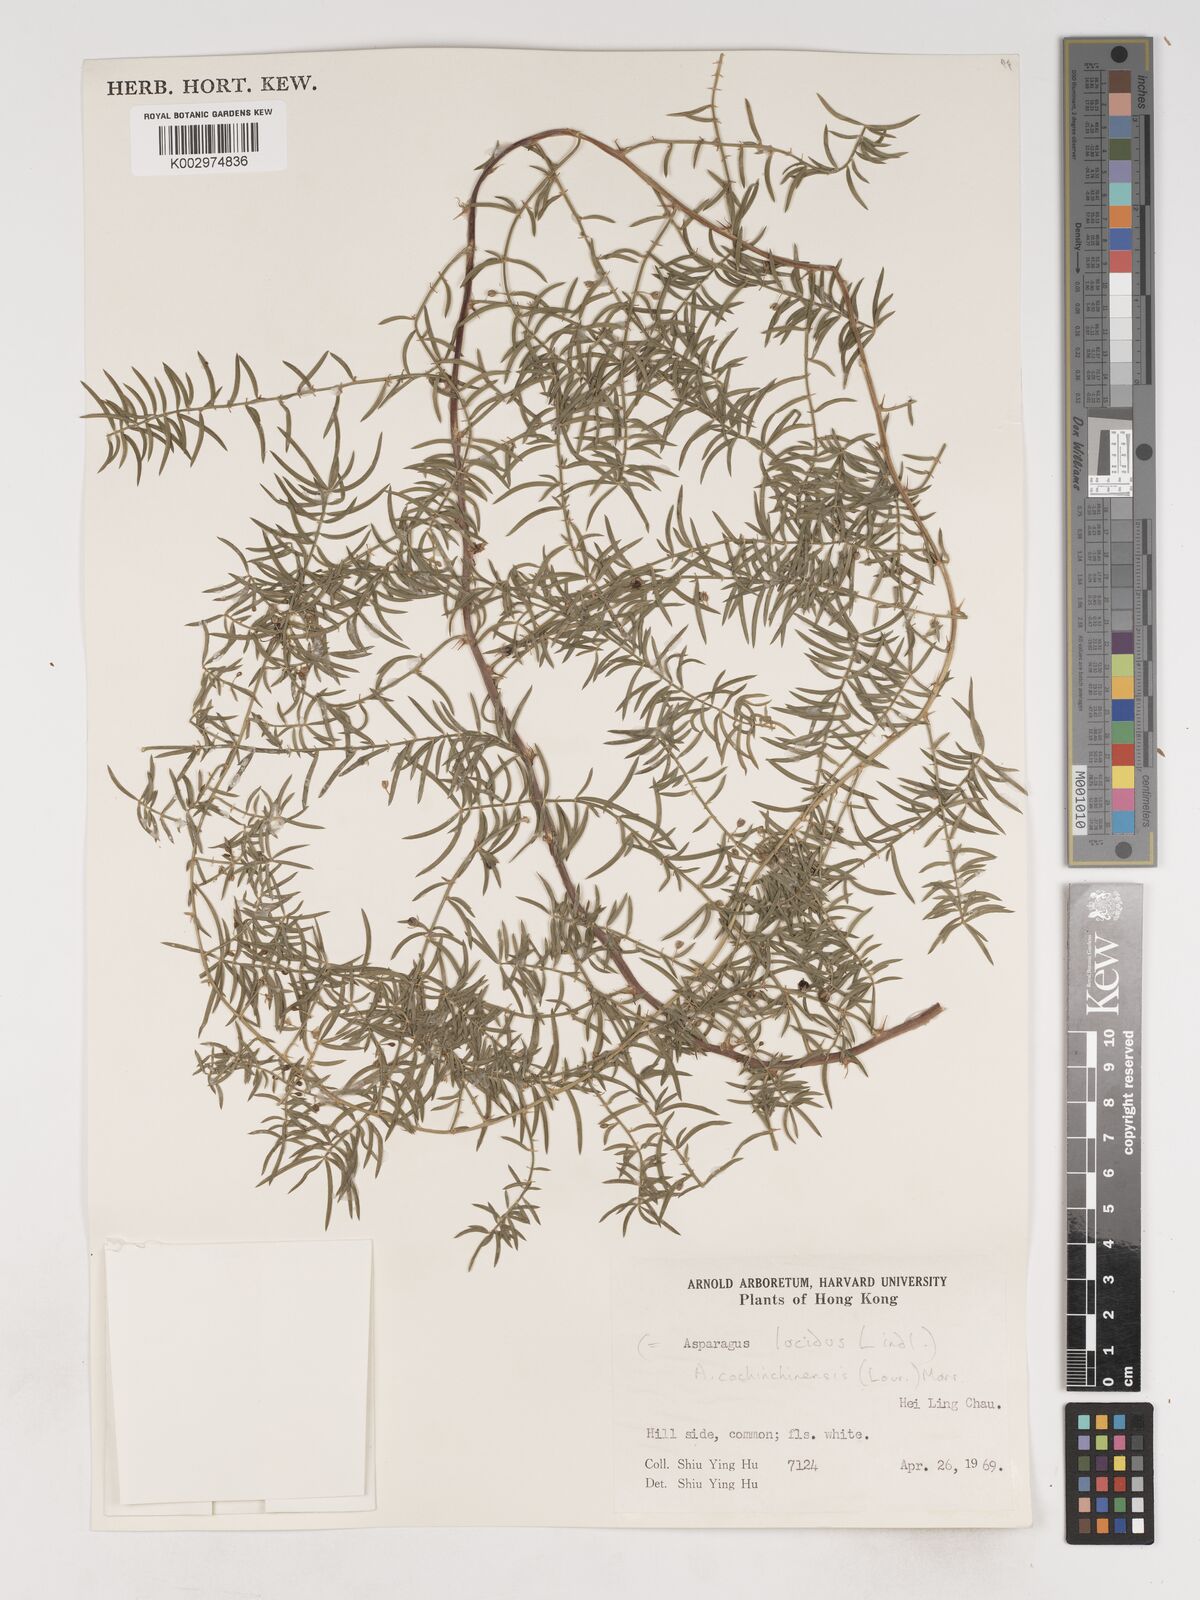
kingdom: Plantae
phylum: Tracheophyta
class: Liliopsida
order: Asparagales
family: Asparagaceae
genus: Asparagus
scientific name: Asparagus cochinchinensis
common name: Chinese asparagus
